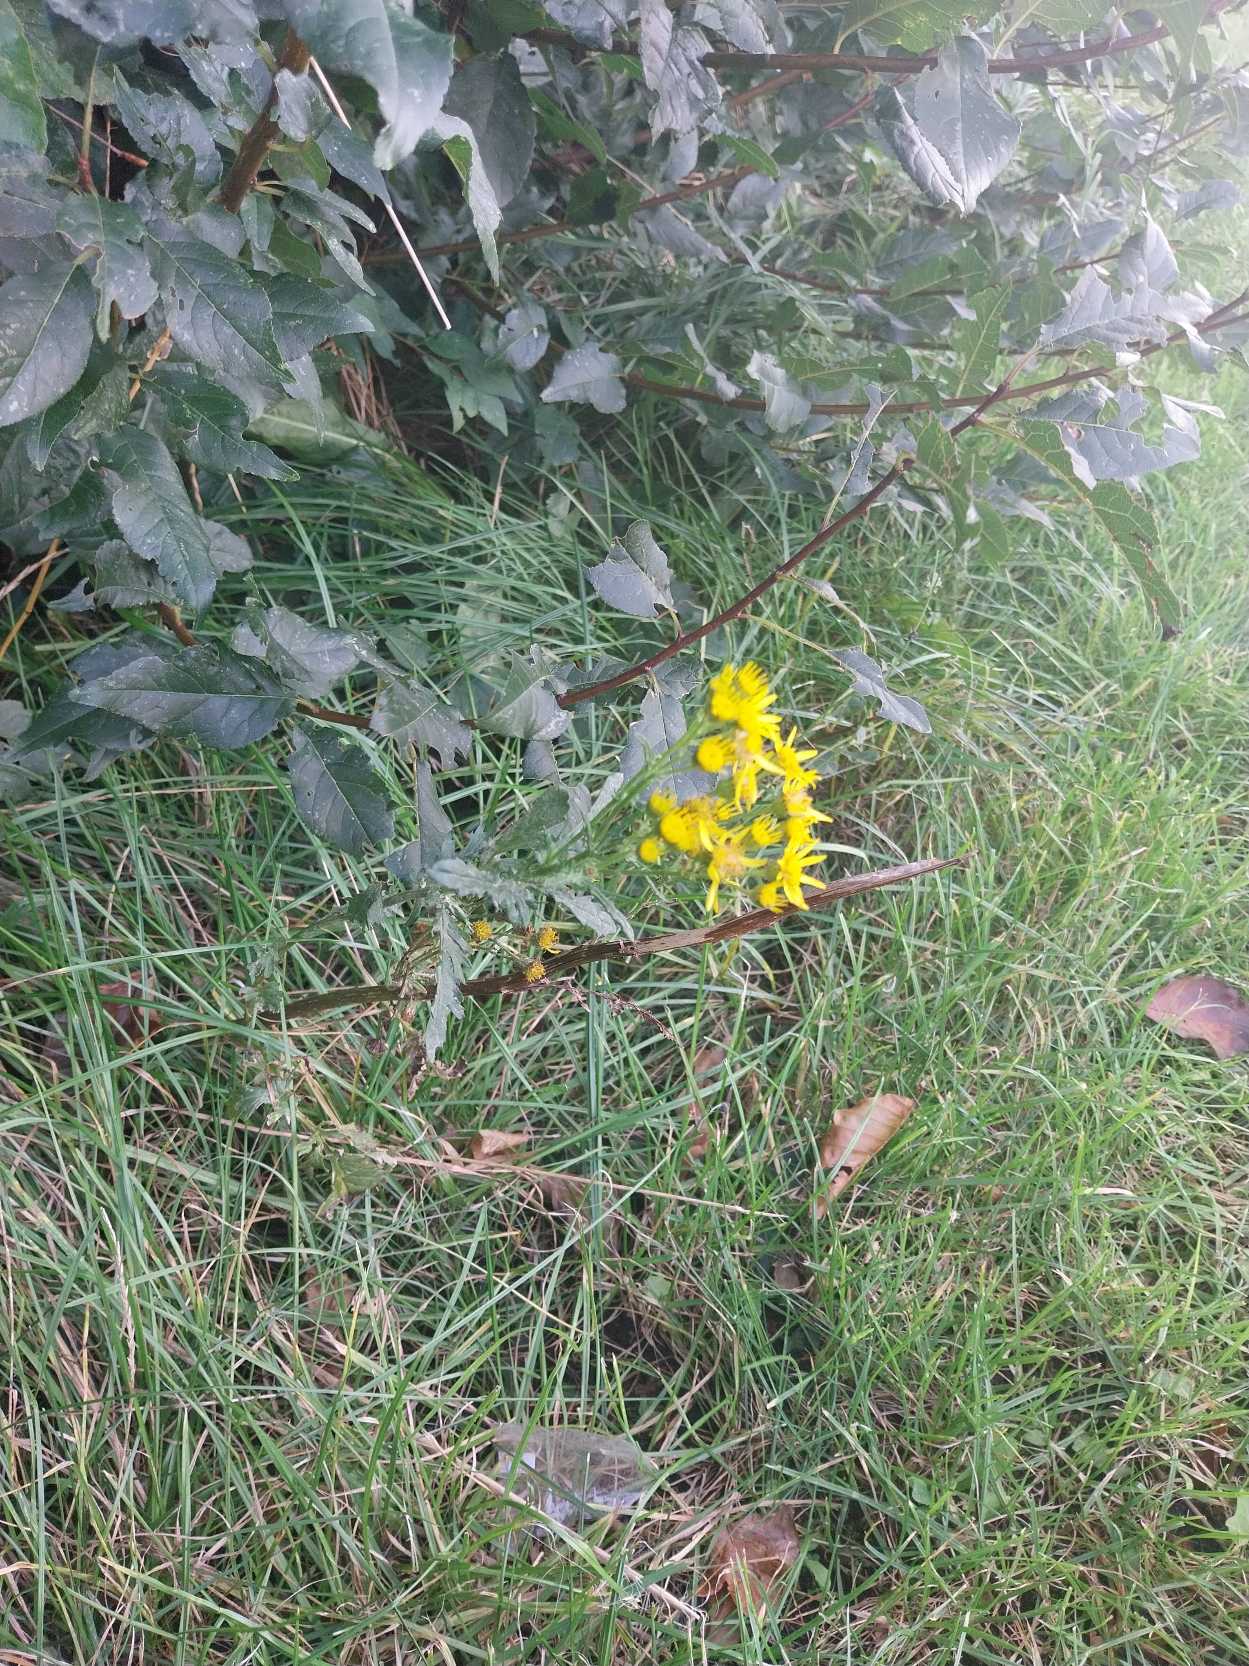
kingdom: Plantae
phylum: Tracheophyta
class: Magnoliopsida
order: Asterales
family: Asteraceae
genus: Jacobaea
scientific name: Jacobaea vulgaris
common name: Eng-brandbæger
